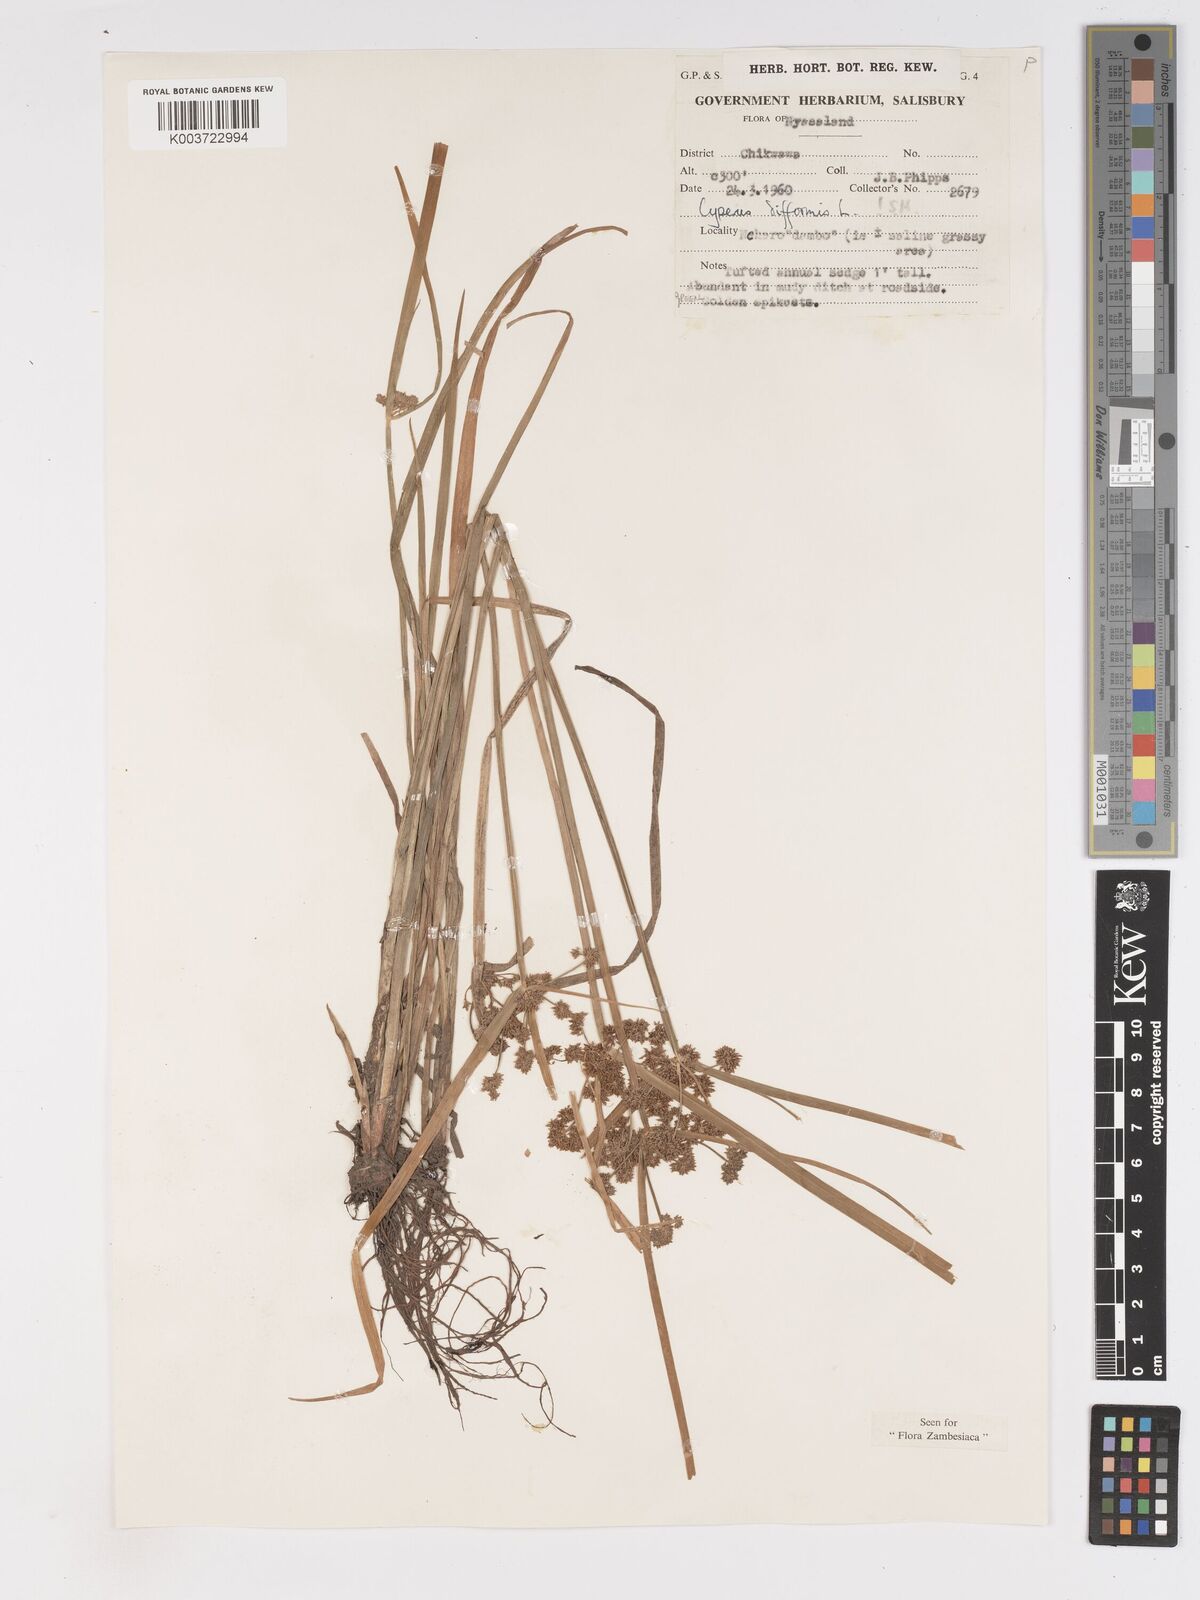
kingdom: Plantae
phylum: Tracheophyta
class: Liliopsida
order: Poales
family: Cyperaceae
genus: Cyperus
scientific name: Cyperus difformis
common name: Variable flatsedge
